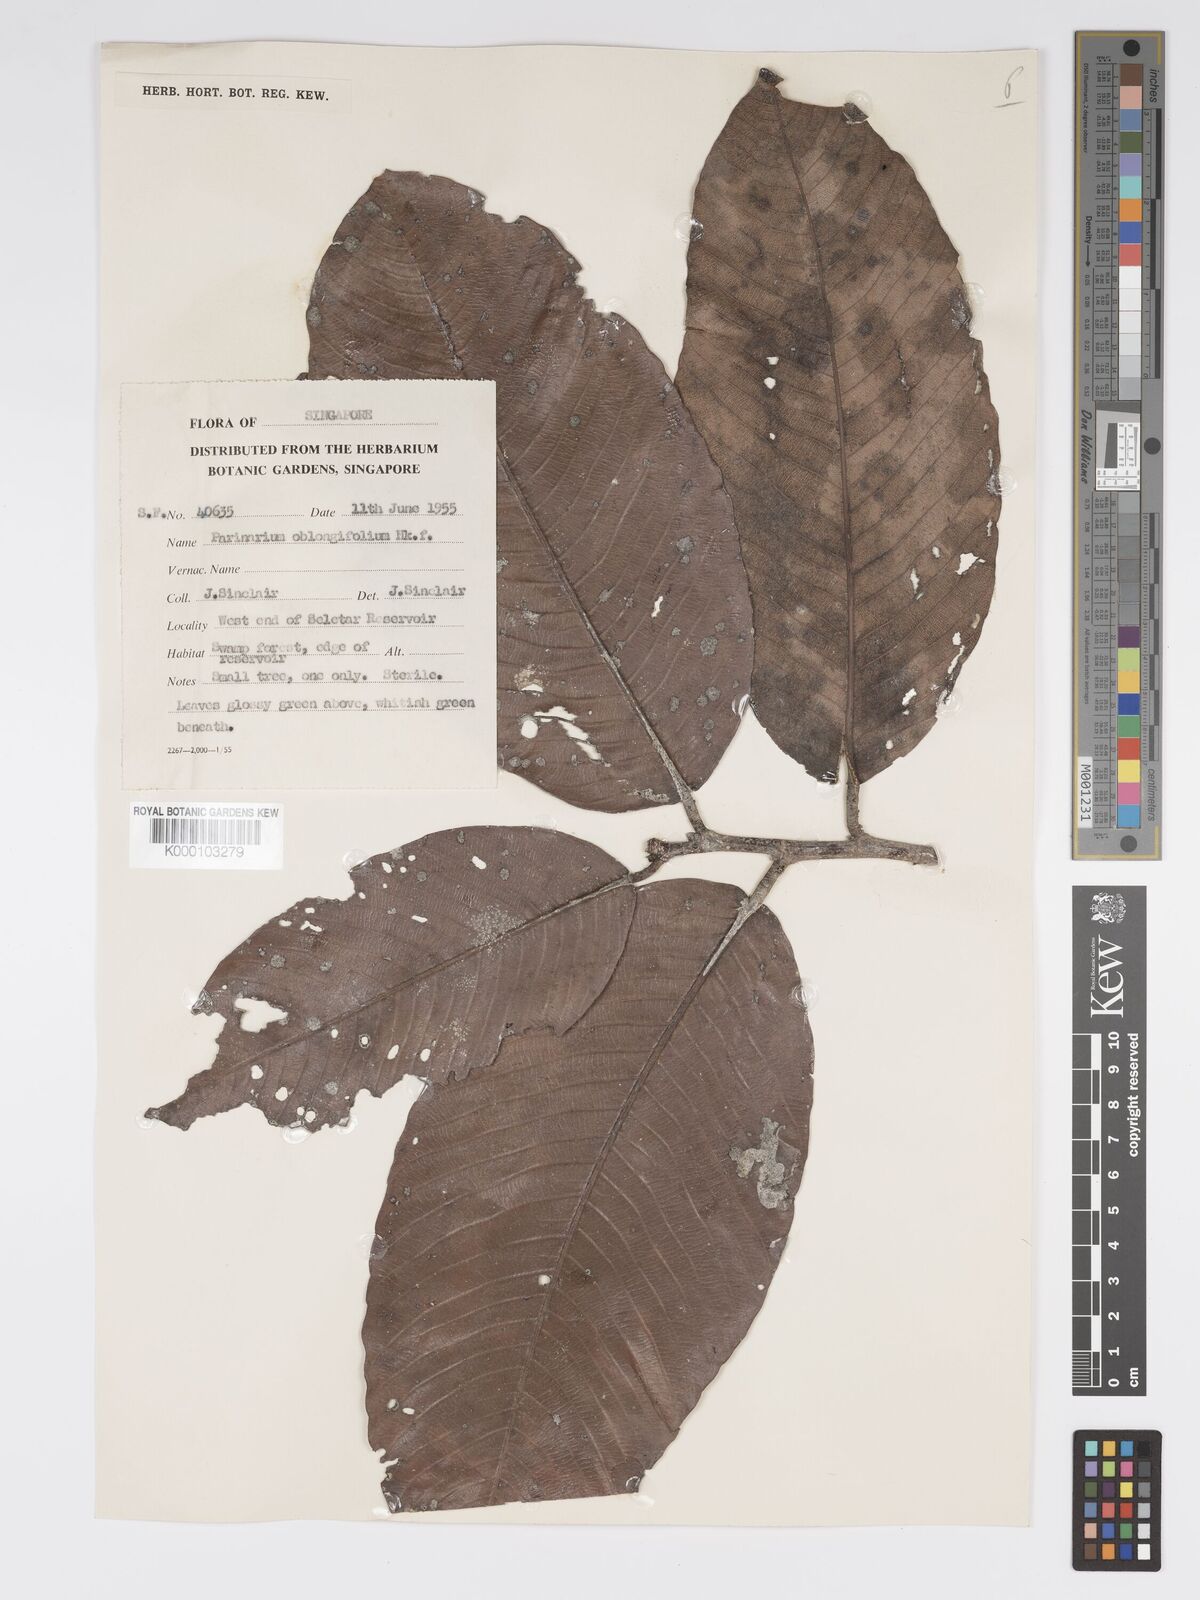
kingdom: Plantae
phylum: Tracheophyta
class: Magnoliopsida
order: Malpighiales
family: Chrysobalanaceae
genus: Parinari
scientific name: Parinari oblongifolia
